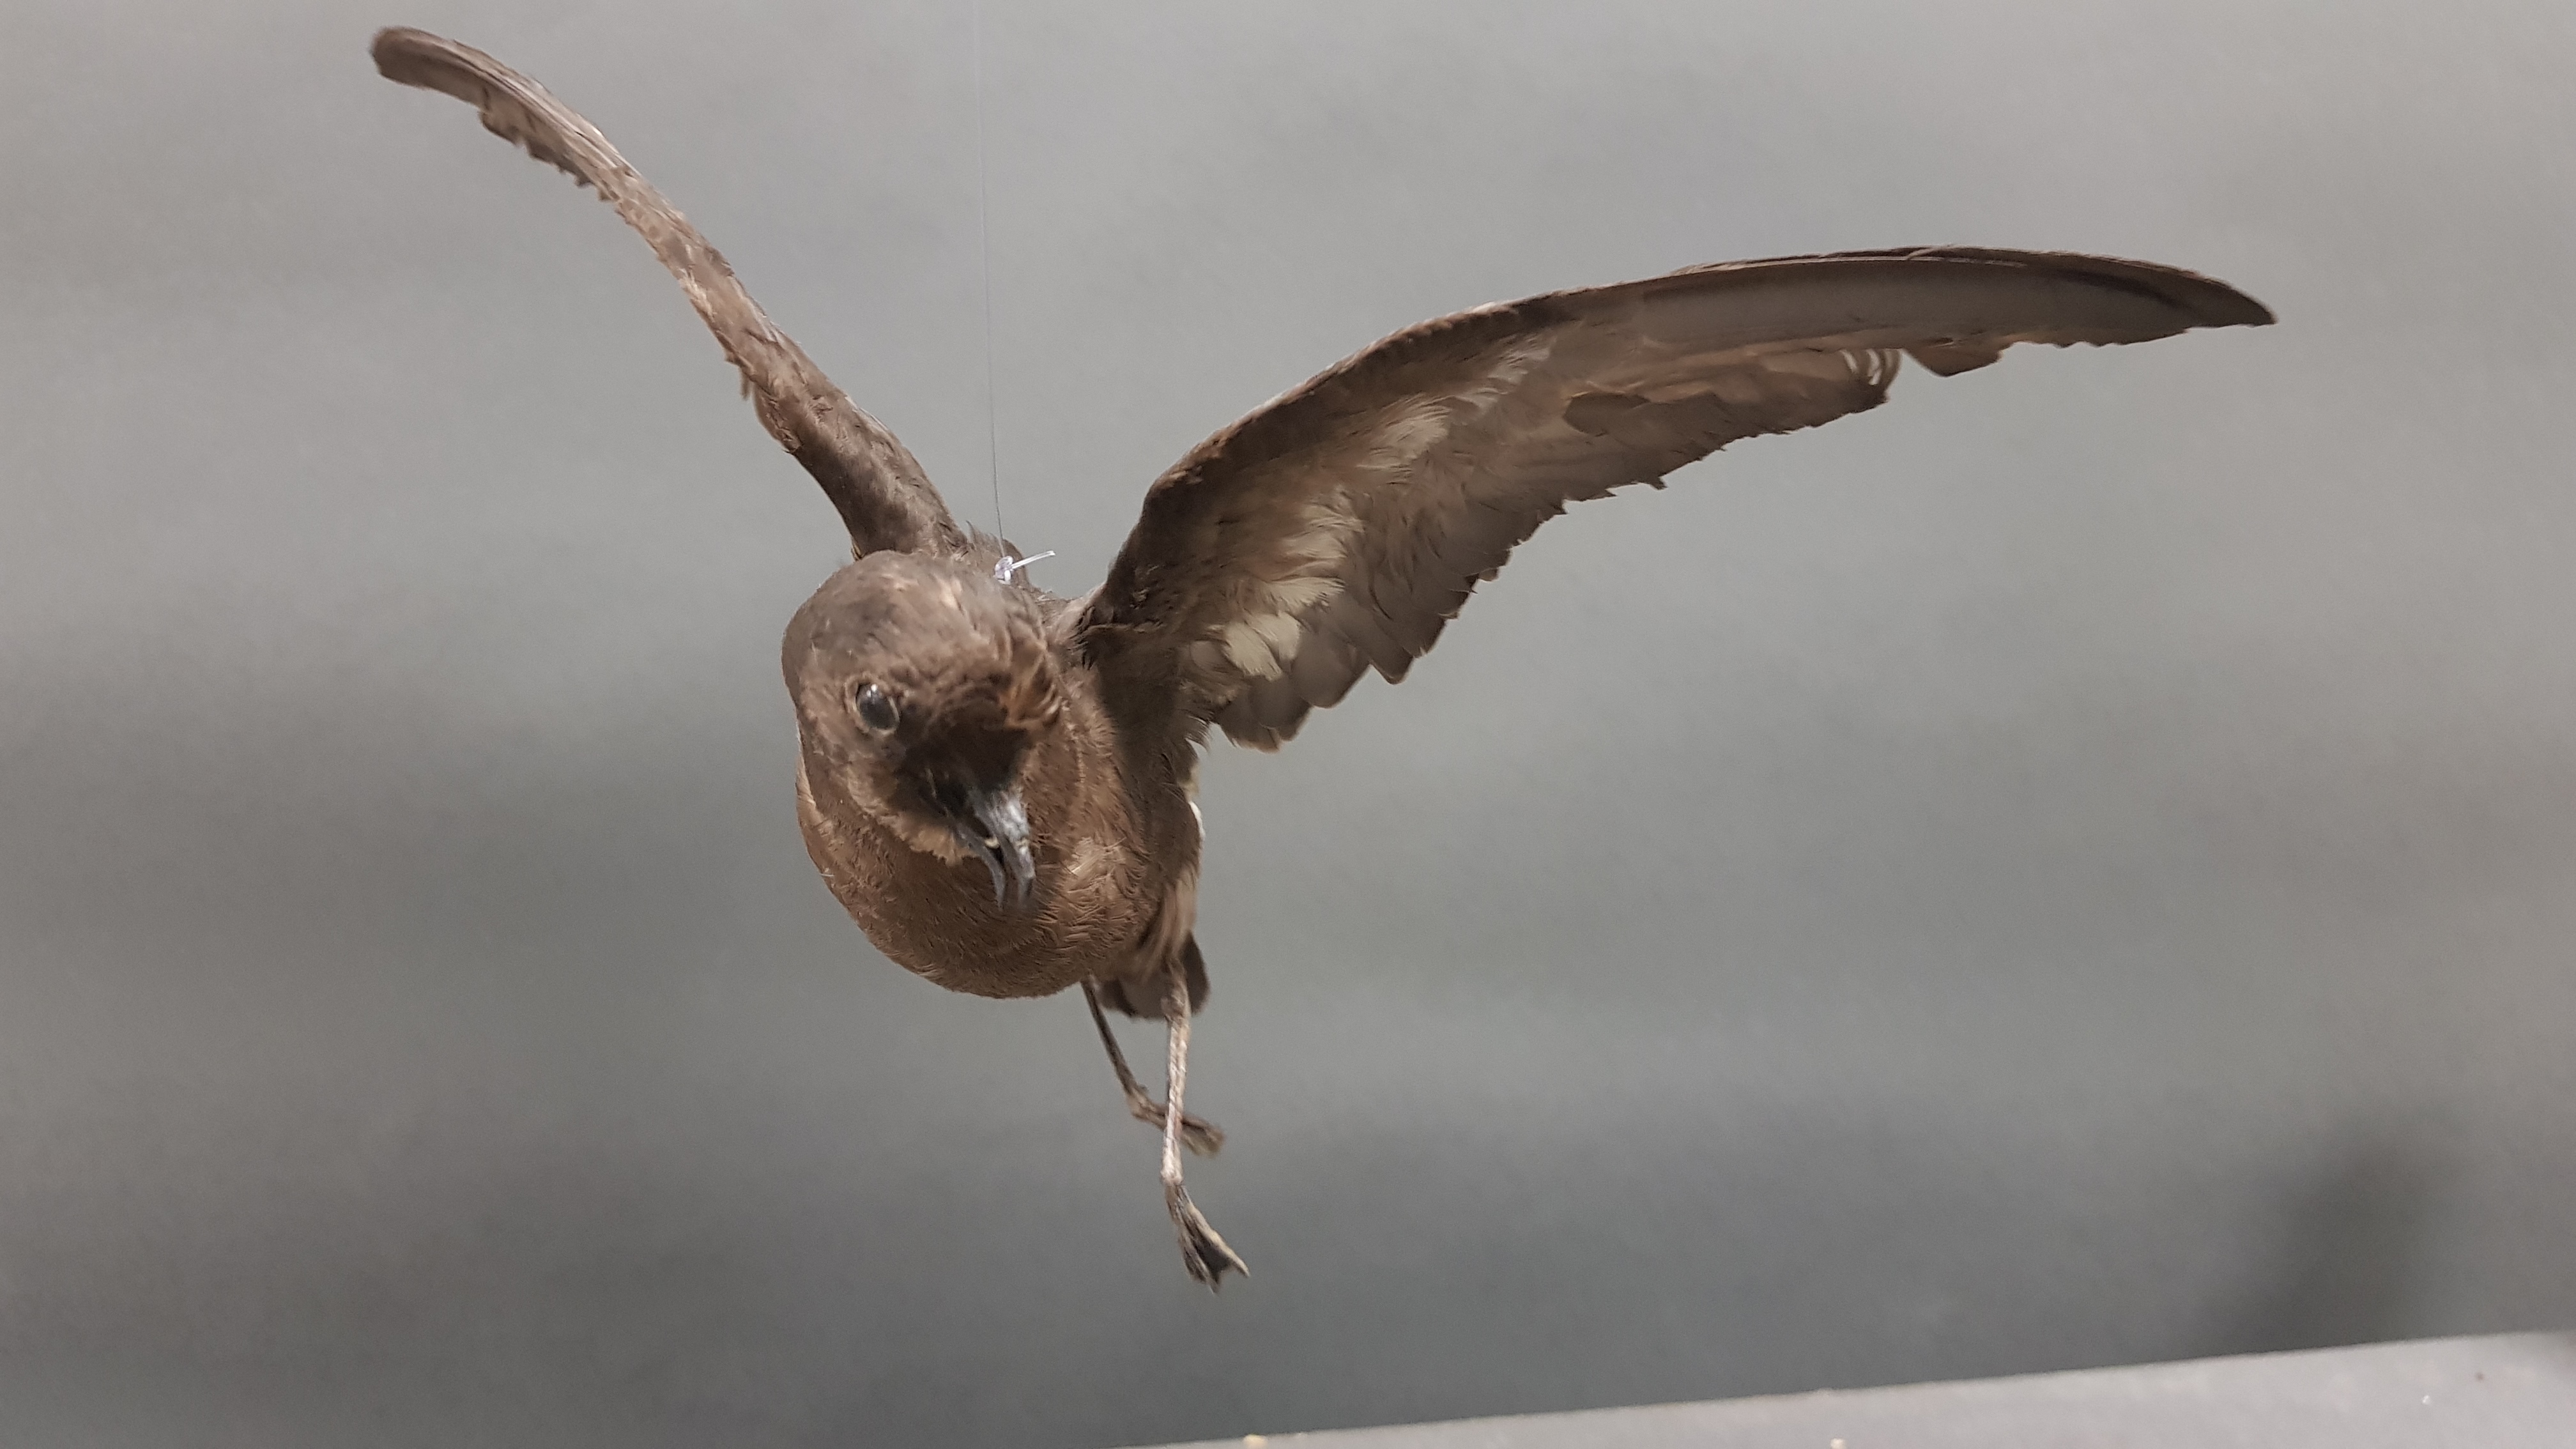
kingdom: Animalia
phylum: Chordata
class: Aves
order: Procellariiformes
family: Hydrobatidae
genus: Hydrobates
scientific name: Hydrobates pelagicus
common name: European storm-petrel
